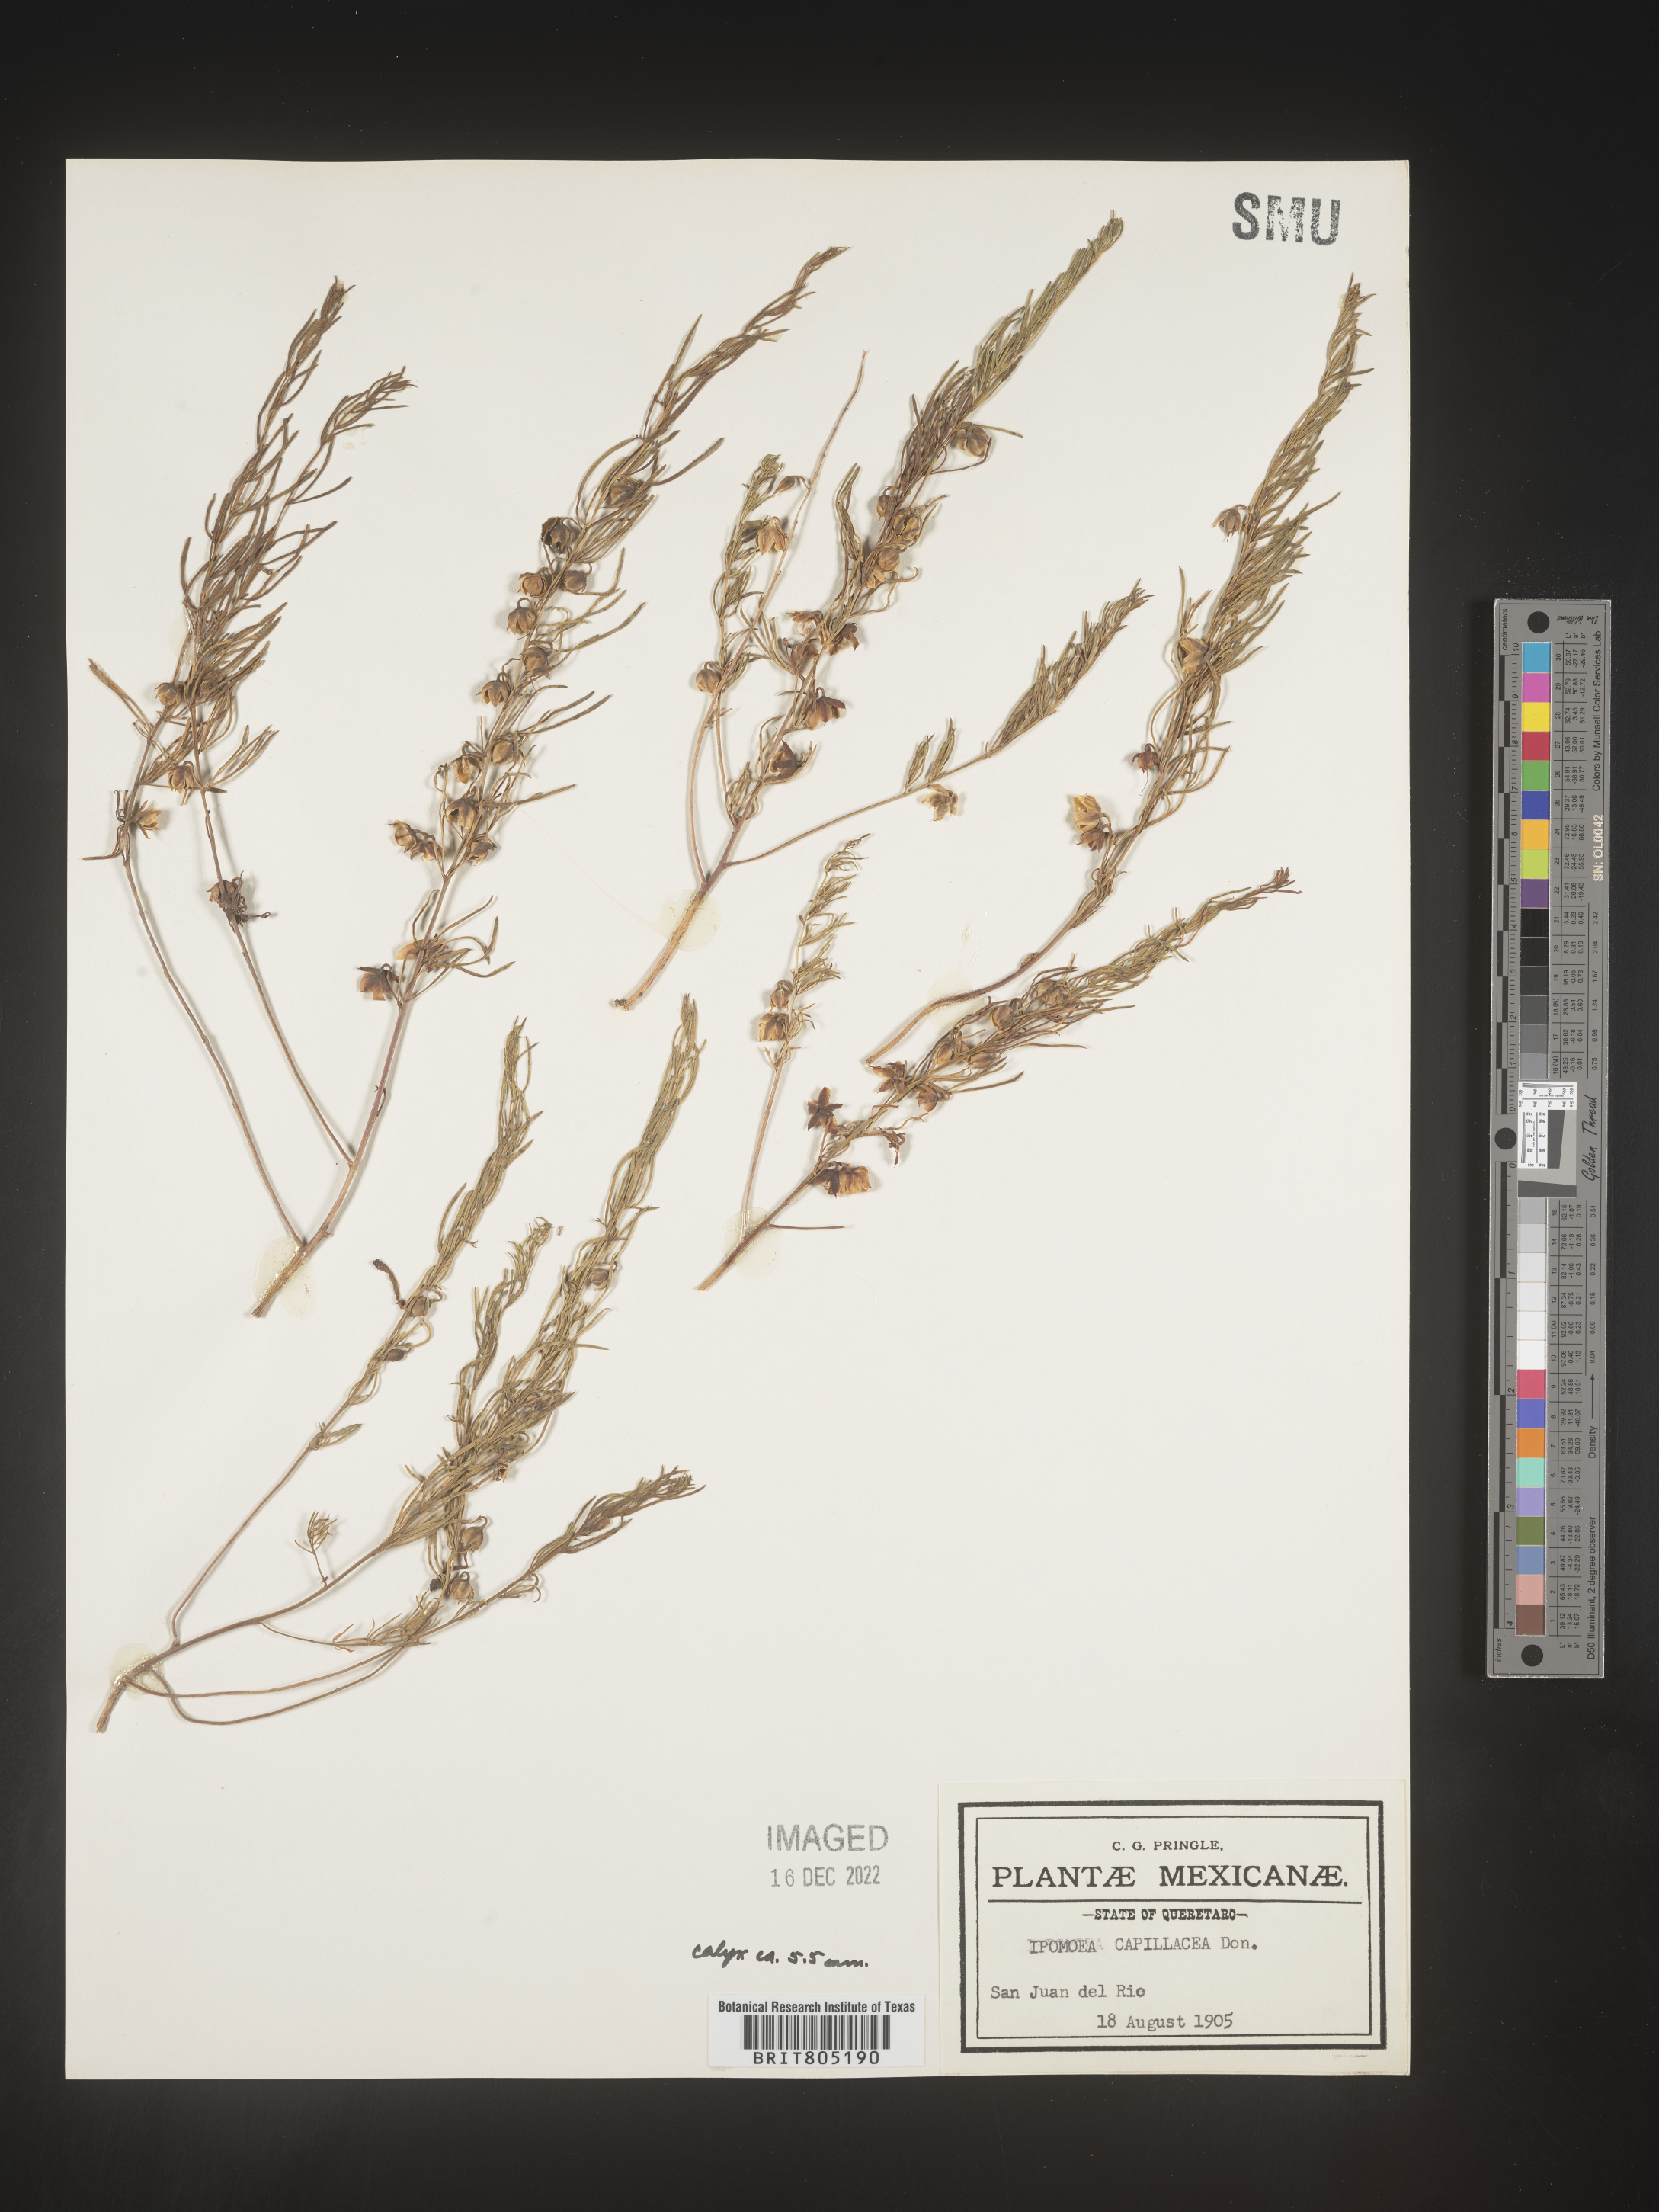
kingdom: Plantae
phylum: Tracheophyta
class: Magnoliopsida
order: Solanales
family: Convolvulaceae
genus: Ipomoea
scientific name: Ipomoea
